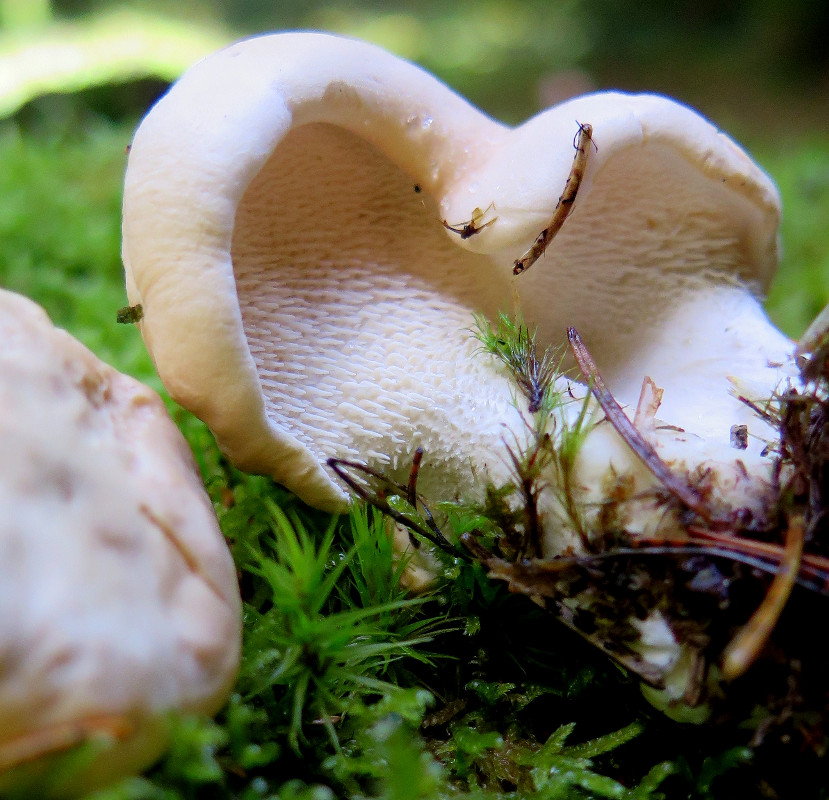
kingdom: Fungi
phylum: Basidiomycota
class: Agaricomycetes
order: Cantharellales
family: Hydnaceae
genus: Hydnum
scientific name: Hydnum repandum
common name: almindelig pigsvamp
